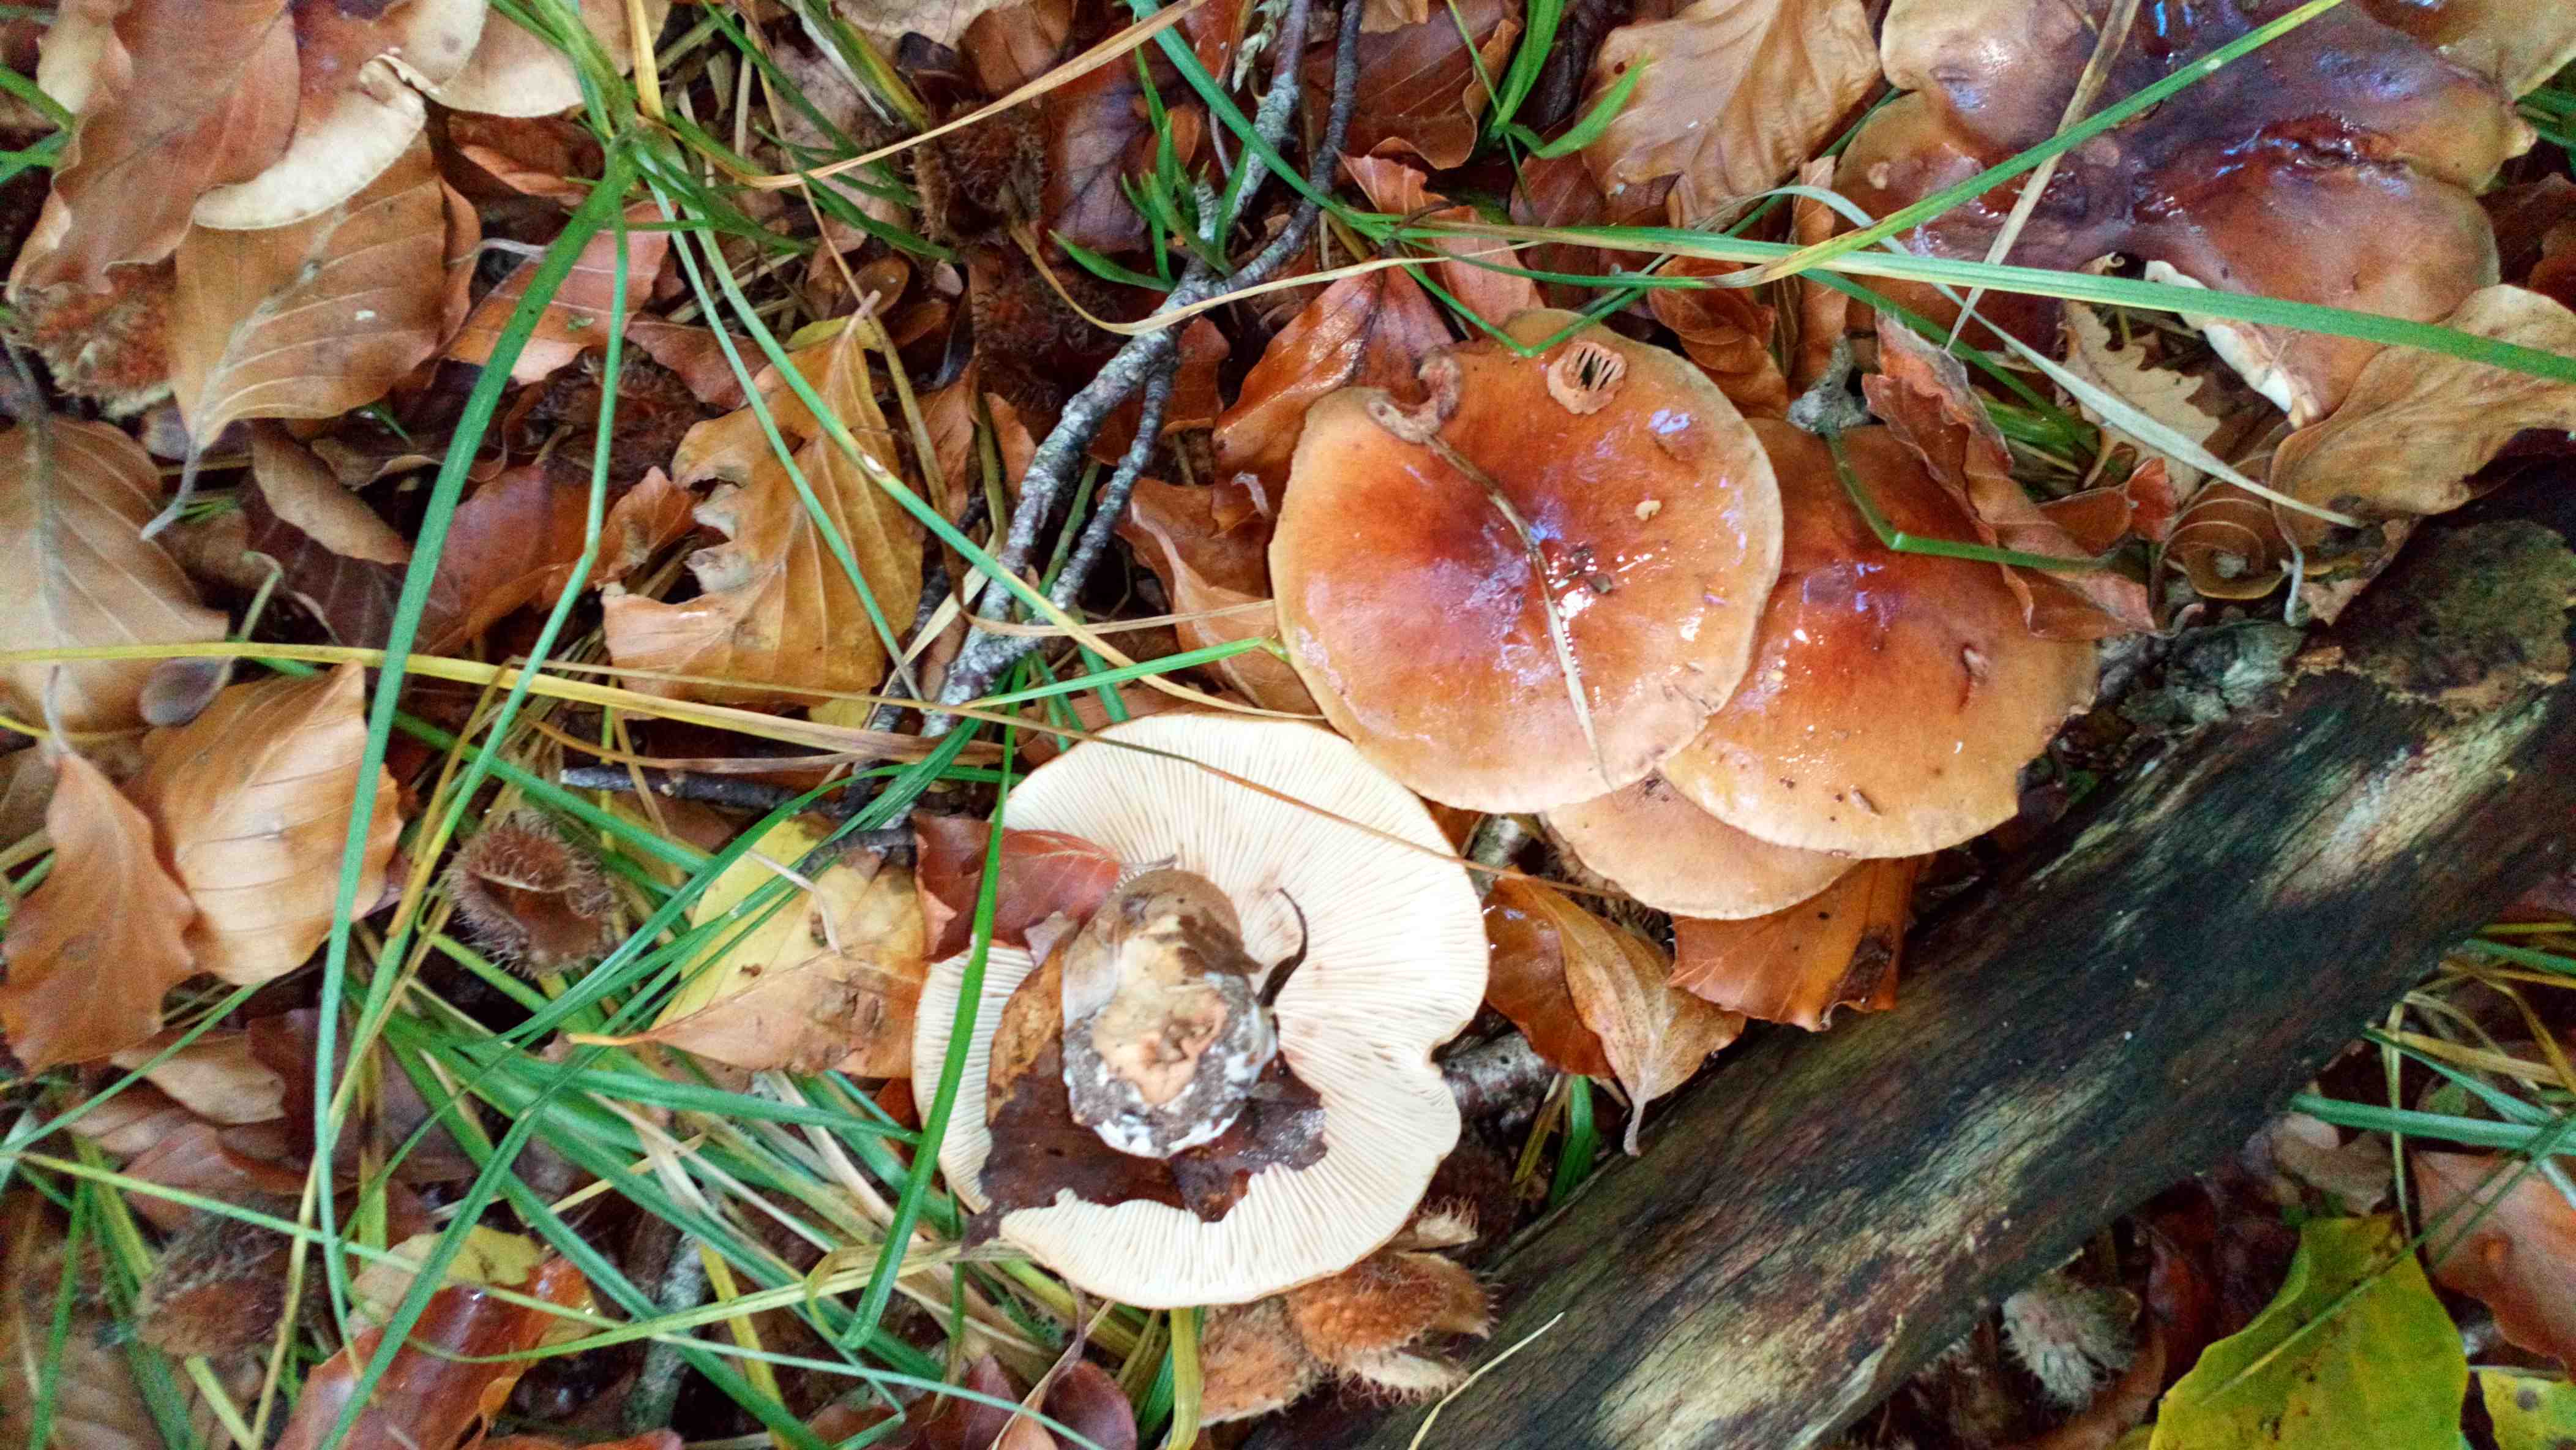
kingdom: Fungi
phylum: Basidiomycota
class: Agaricomycetes
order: Agaricales
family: Tricholomataceae
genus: Tricholoma
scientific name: Tricholoma ustale
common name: sveden ridderhat
